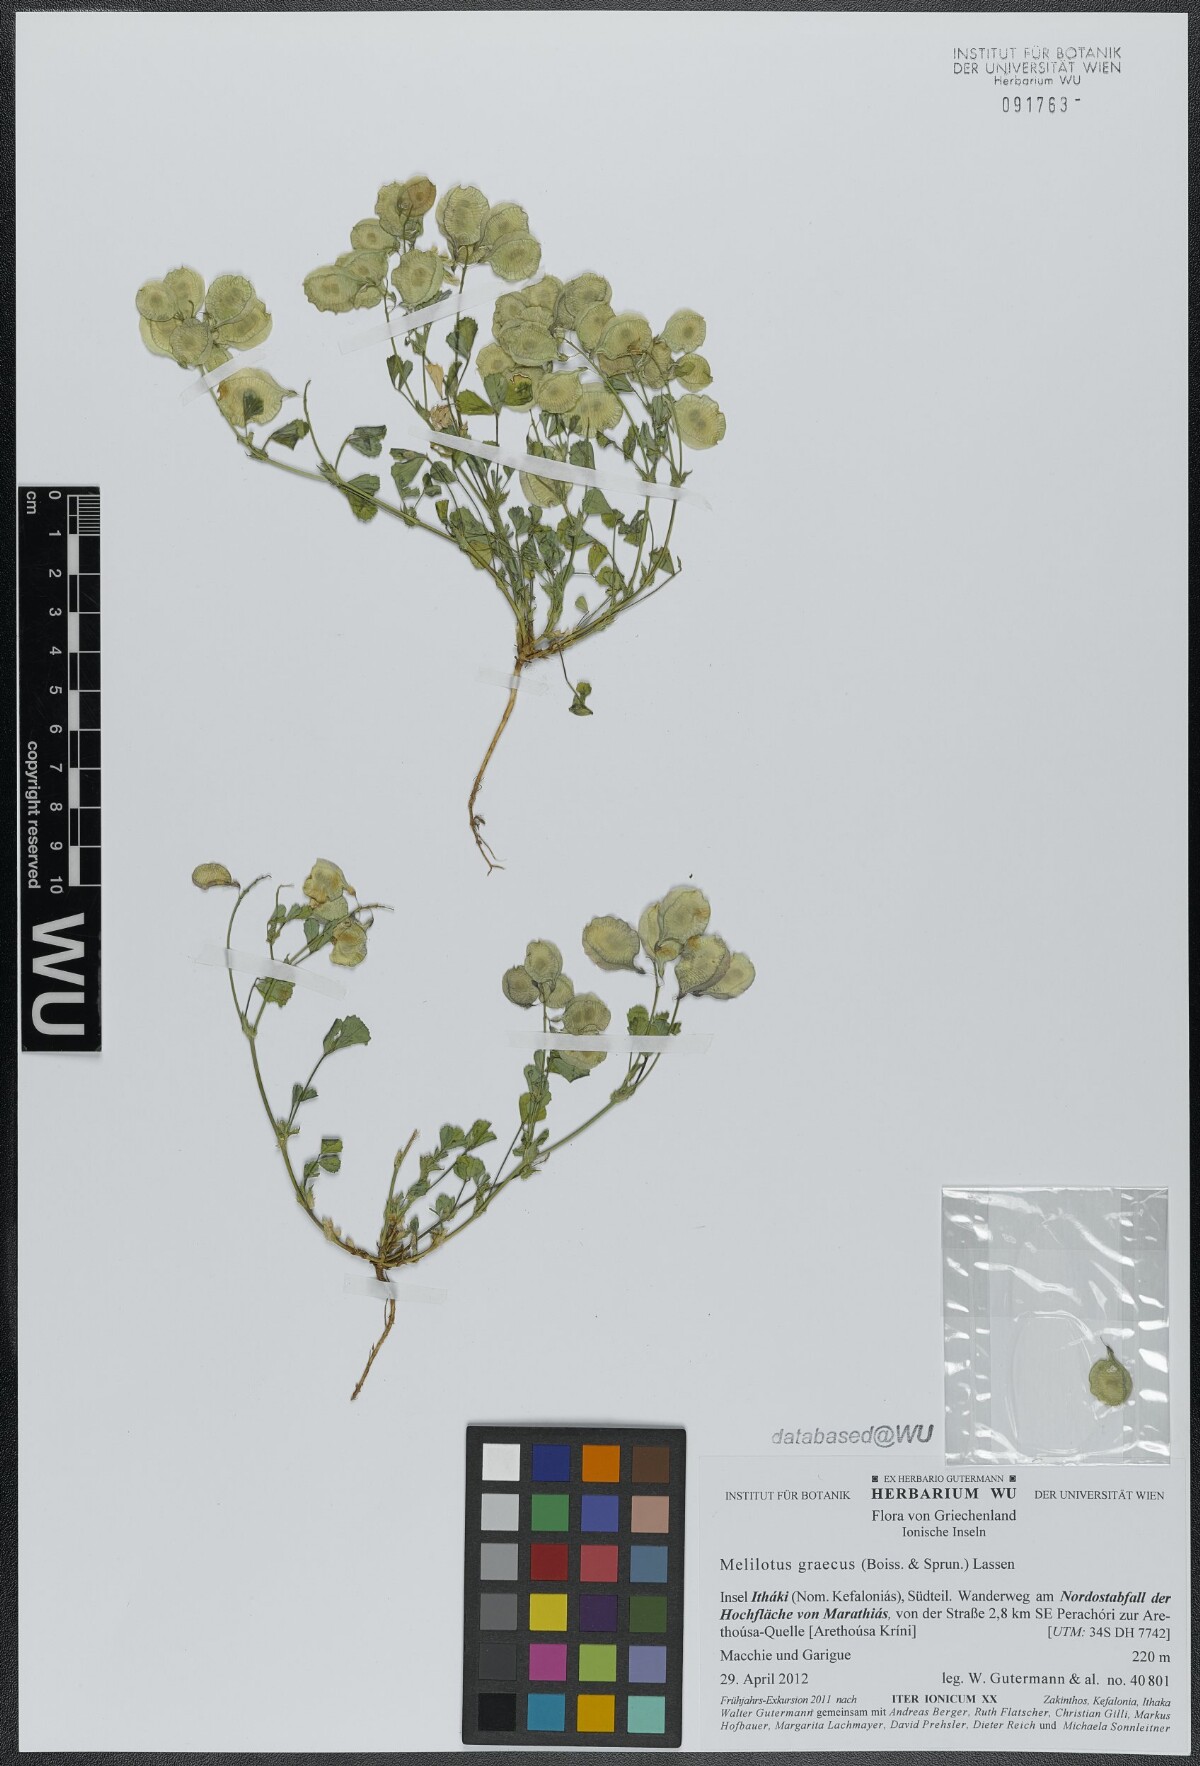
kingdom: Plantae
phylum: Tracheophyta
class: Magnoliopsida
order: Fabales
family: Fabaceae
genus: Trigonella
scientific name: Trigonella graeca
